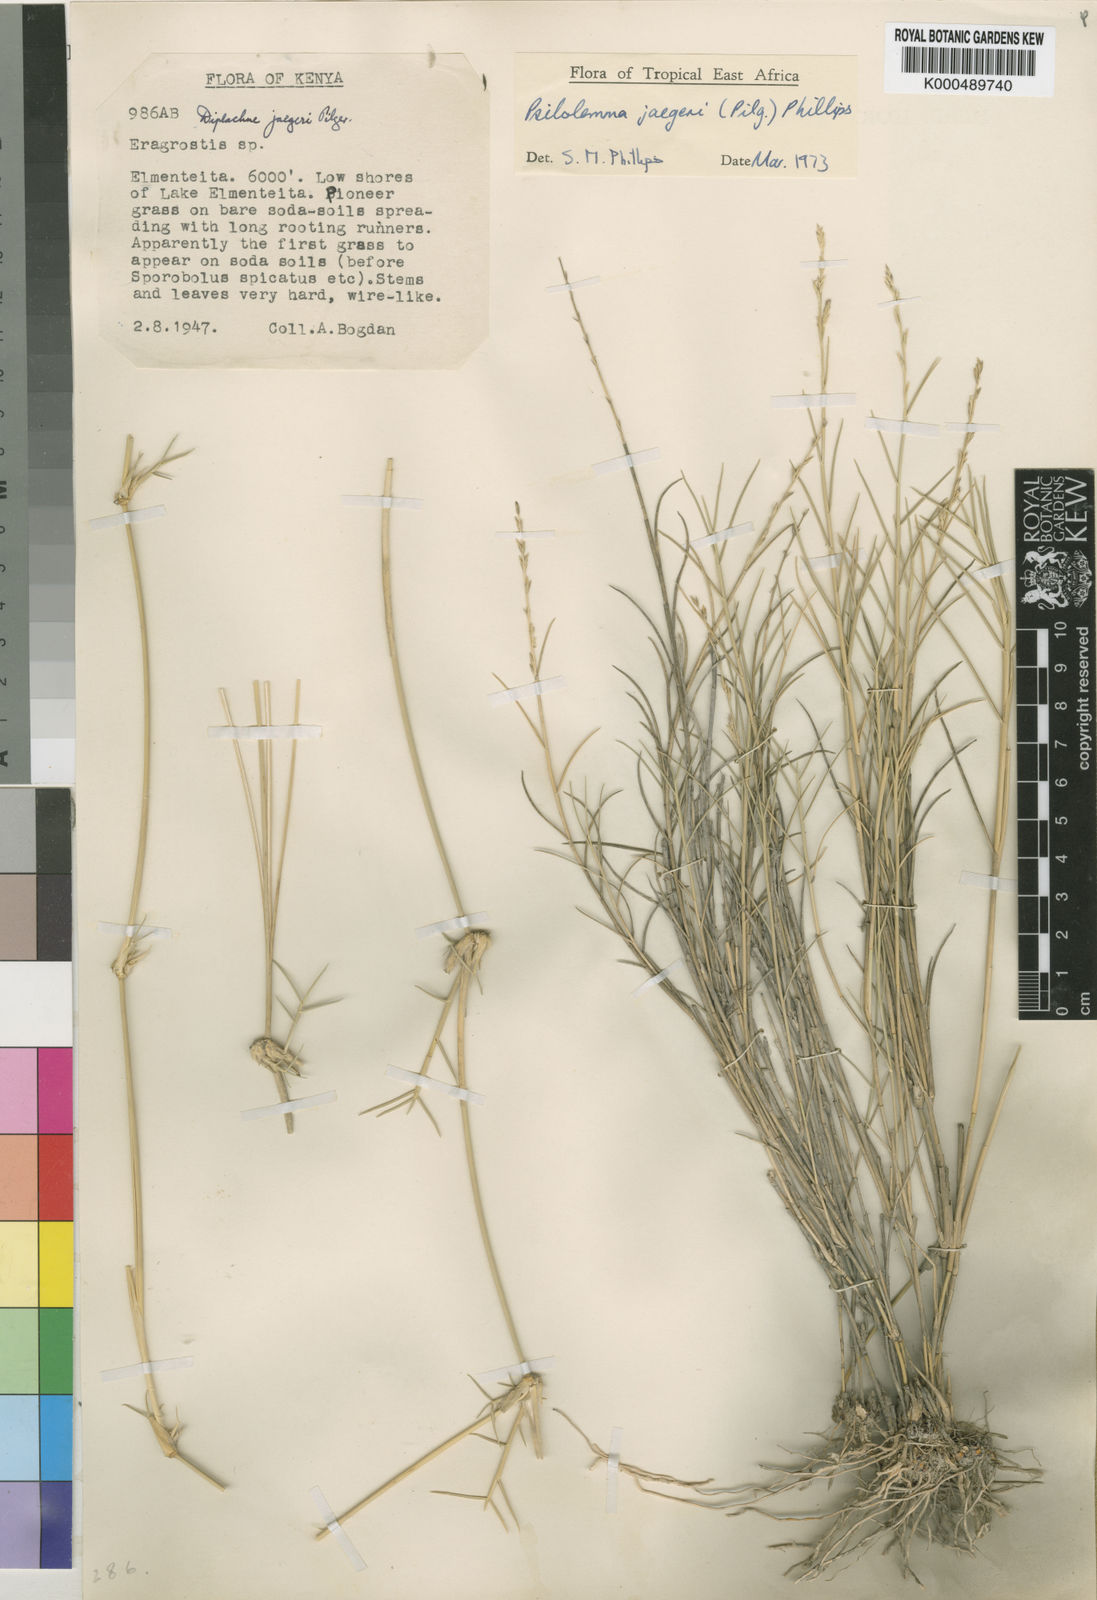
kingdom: Plantae
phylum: Tracheophyta
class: Liliopsida
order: Poales
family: Poaceae
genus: Psilolemma
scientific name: Psilolemma jaegeri
